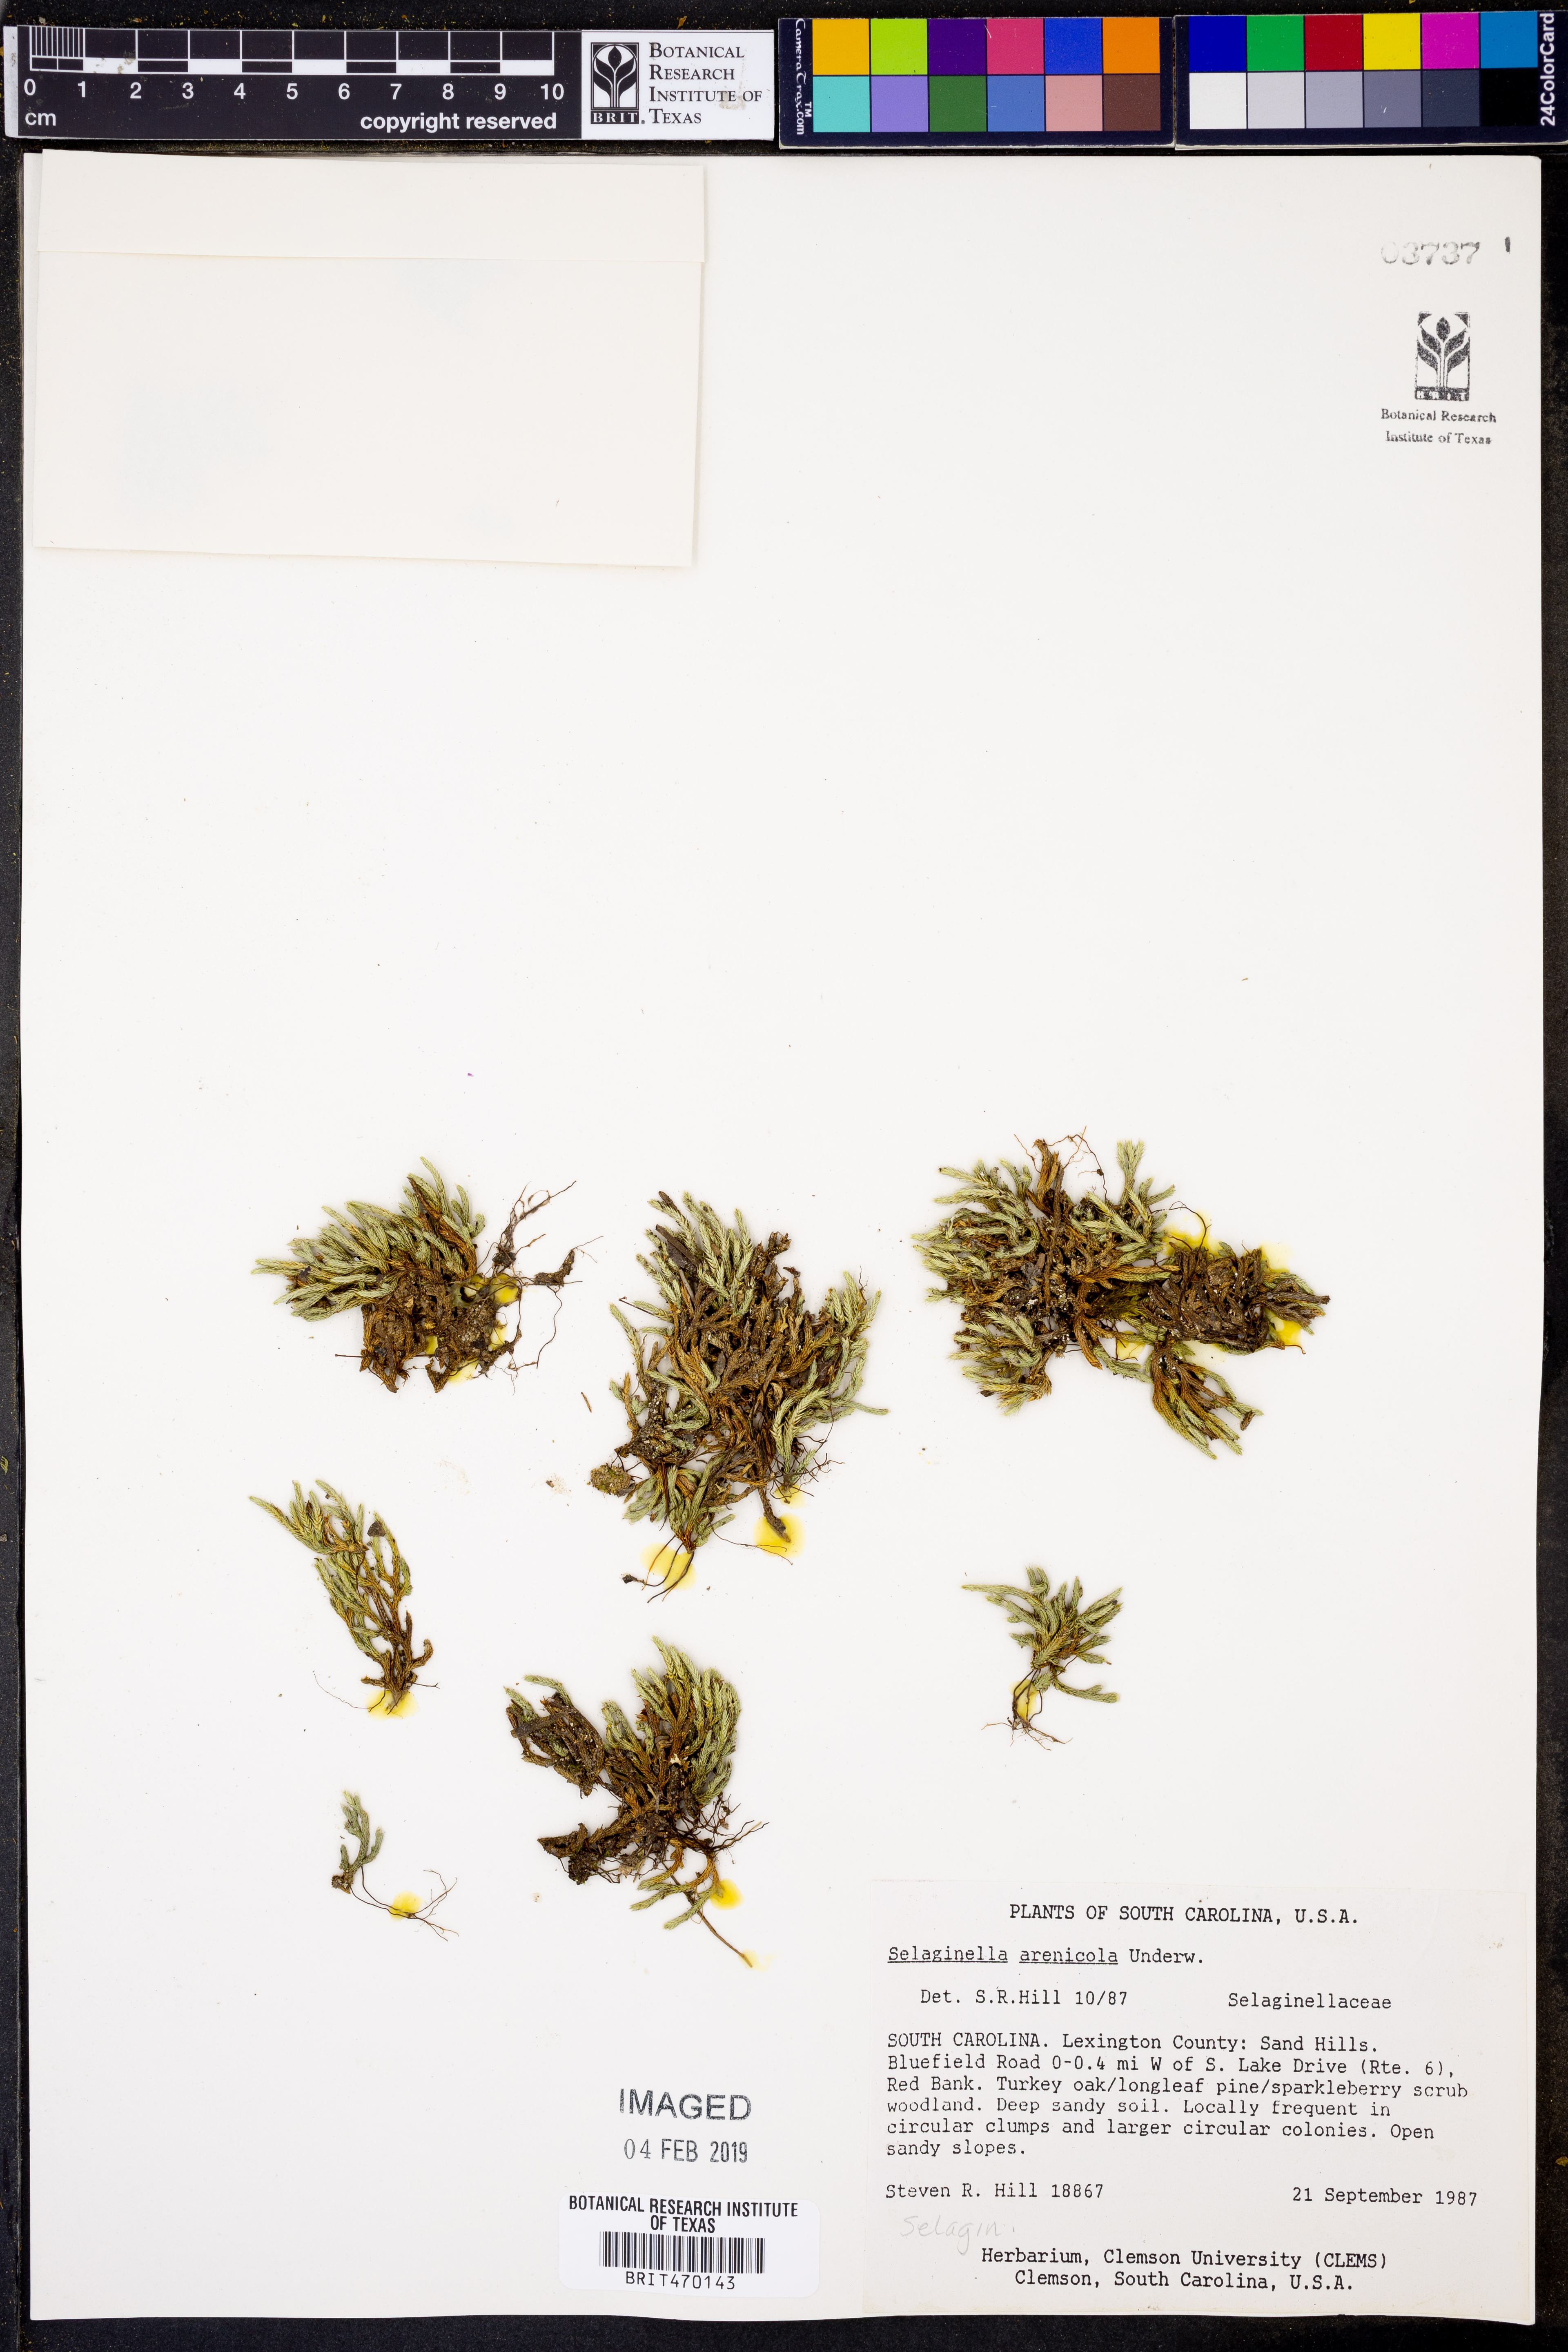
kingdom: Plantae
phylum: Tracheophyta
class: Lycopodiopsida
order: Selaginellales
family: Selaginellaceae
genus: Selaginella
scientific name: Selaginella arenicola
